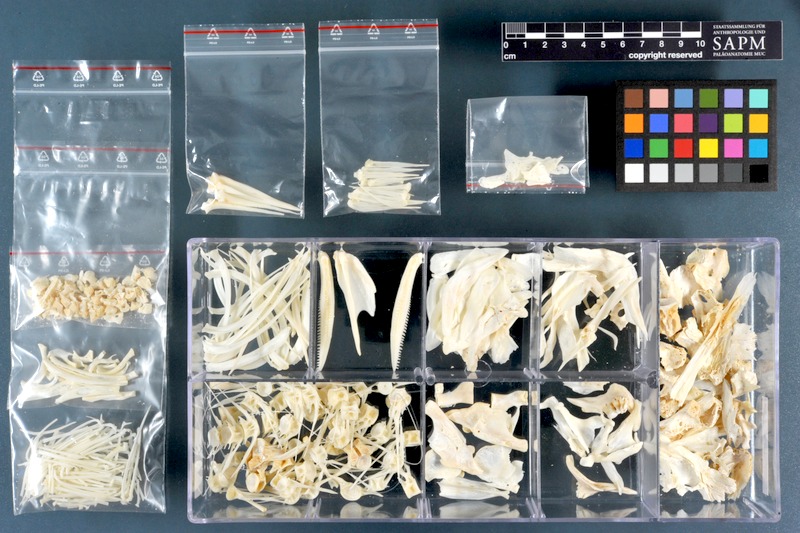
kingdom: Animalia
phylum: Chordata
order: Cypriniformes
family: Cyprinidae
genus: Luciobarbus
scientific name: Luciobarbus xanthopterus
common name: Yellowfin barbel
